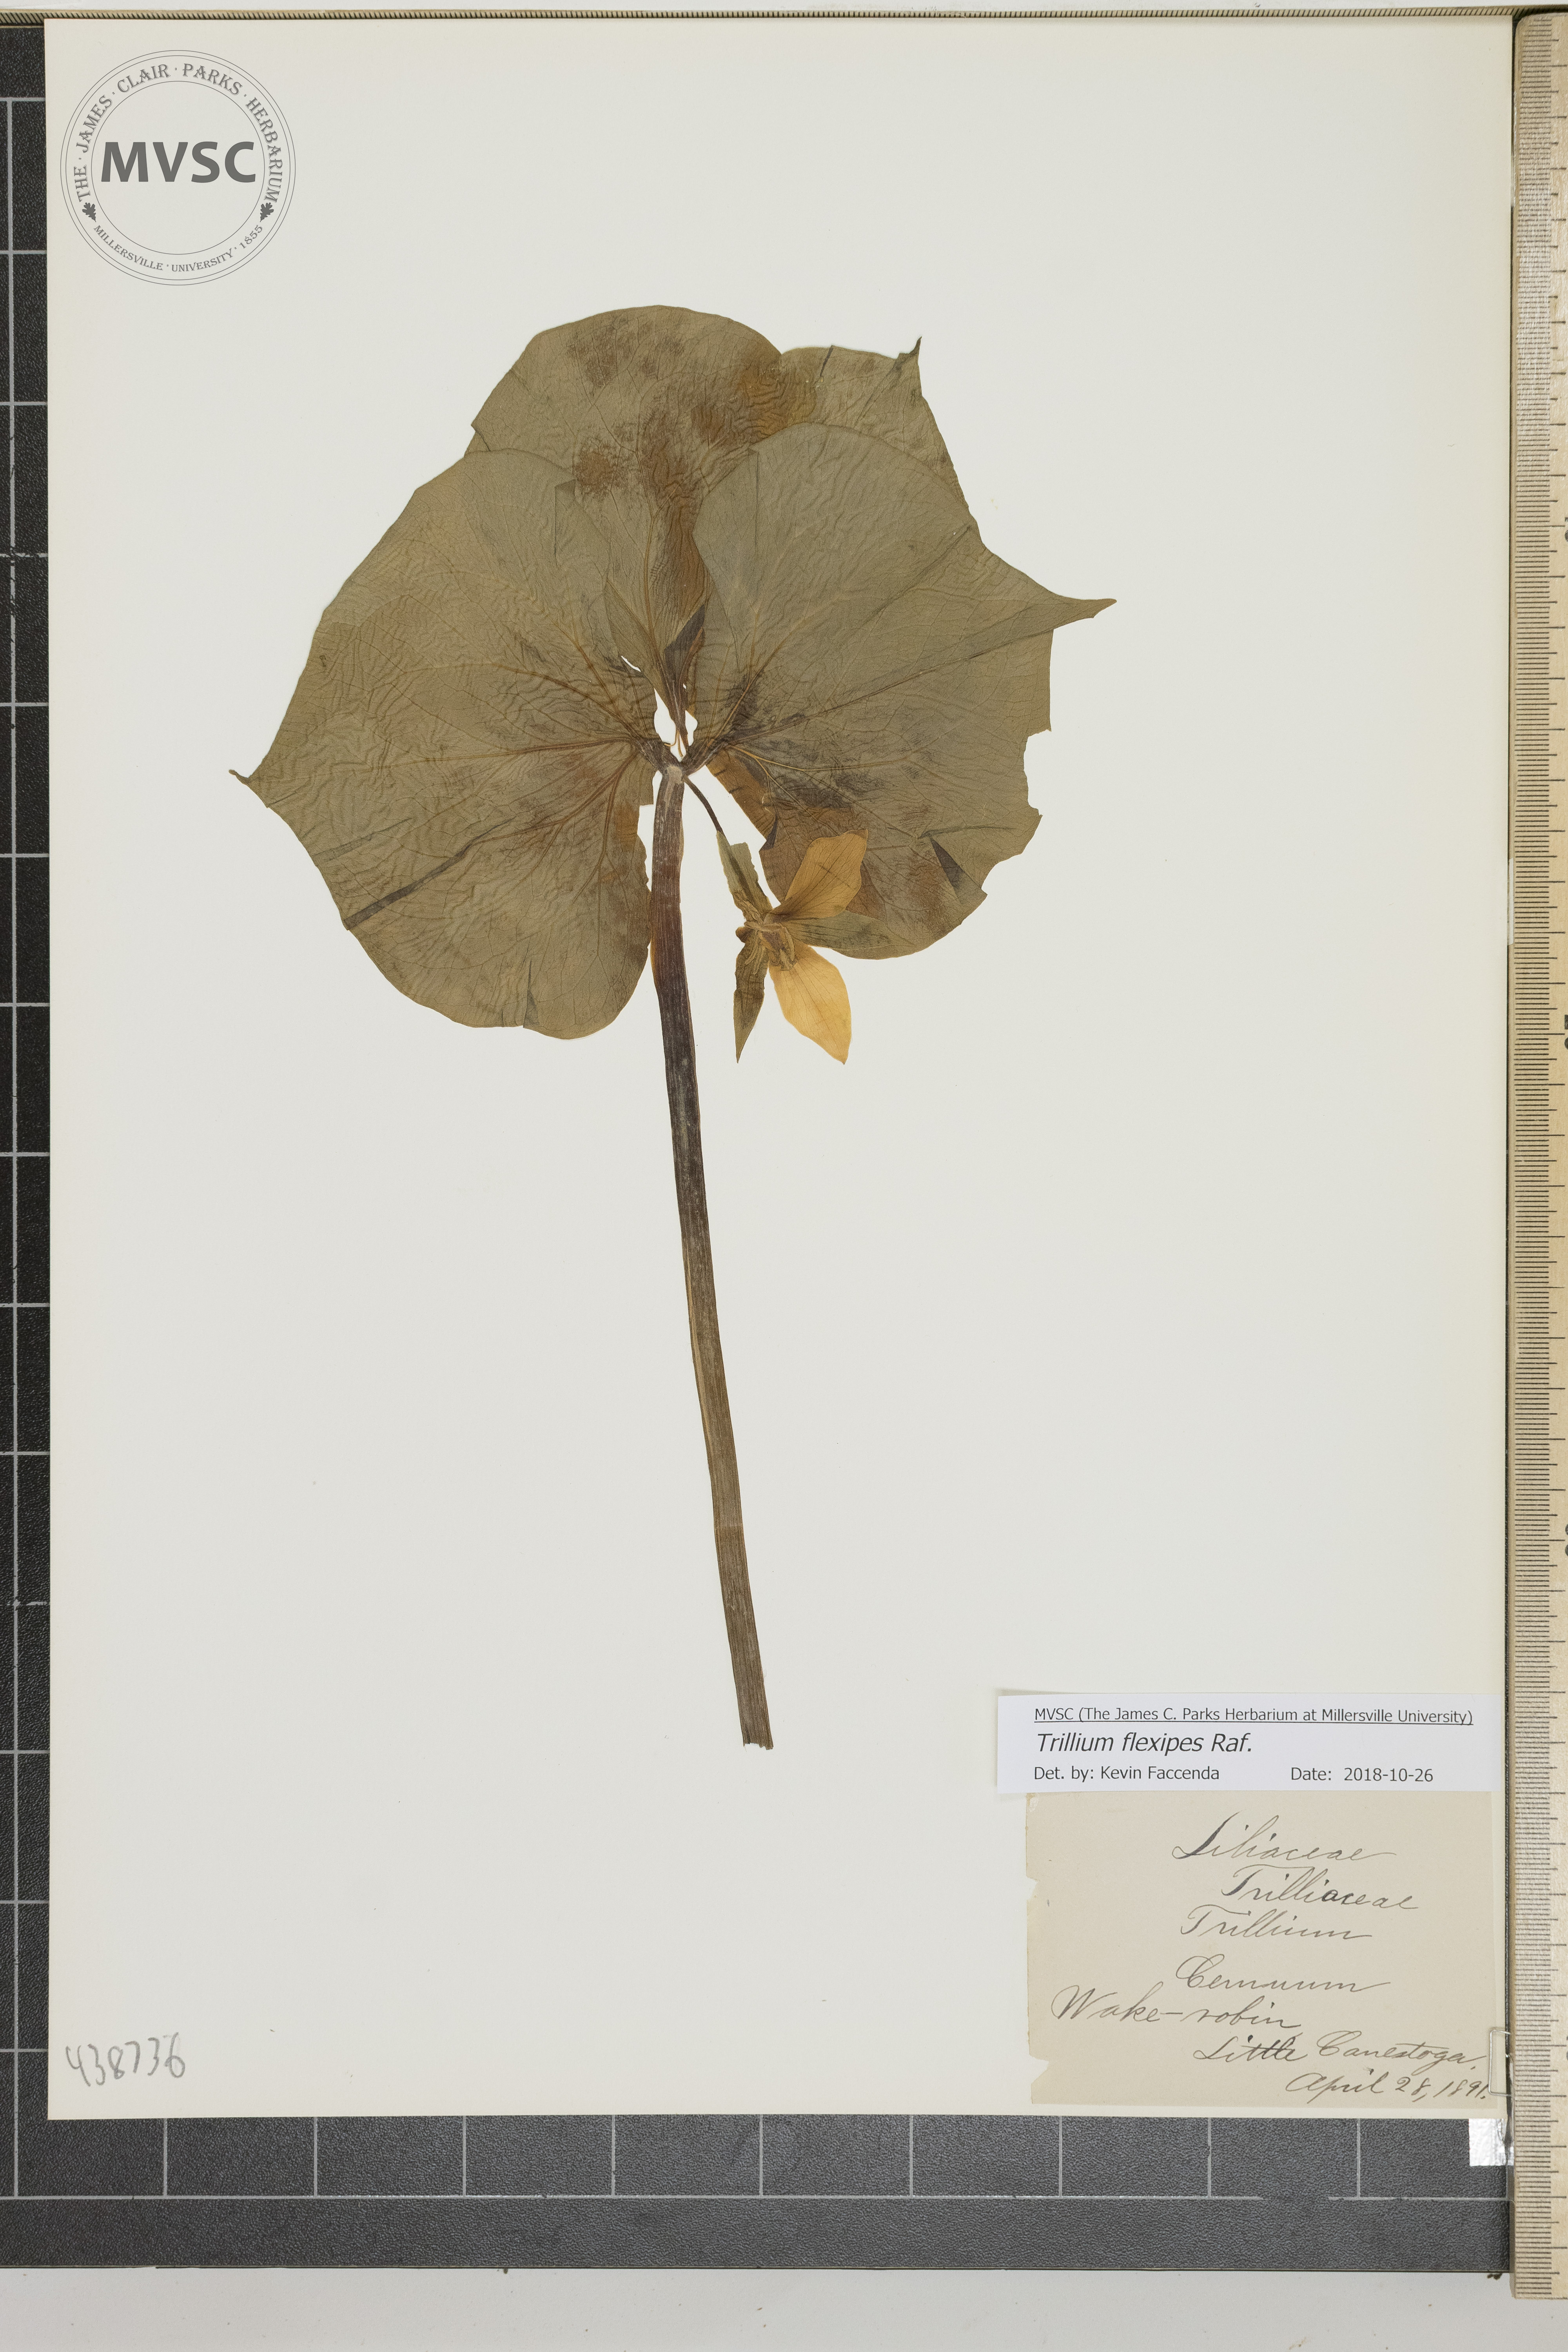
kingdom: Plantae
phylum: Tracheophyta
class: Liliopsida
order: Liliales
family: Melanthiaceae
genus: Trillium
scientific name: Trillium flexipes
